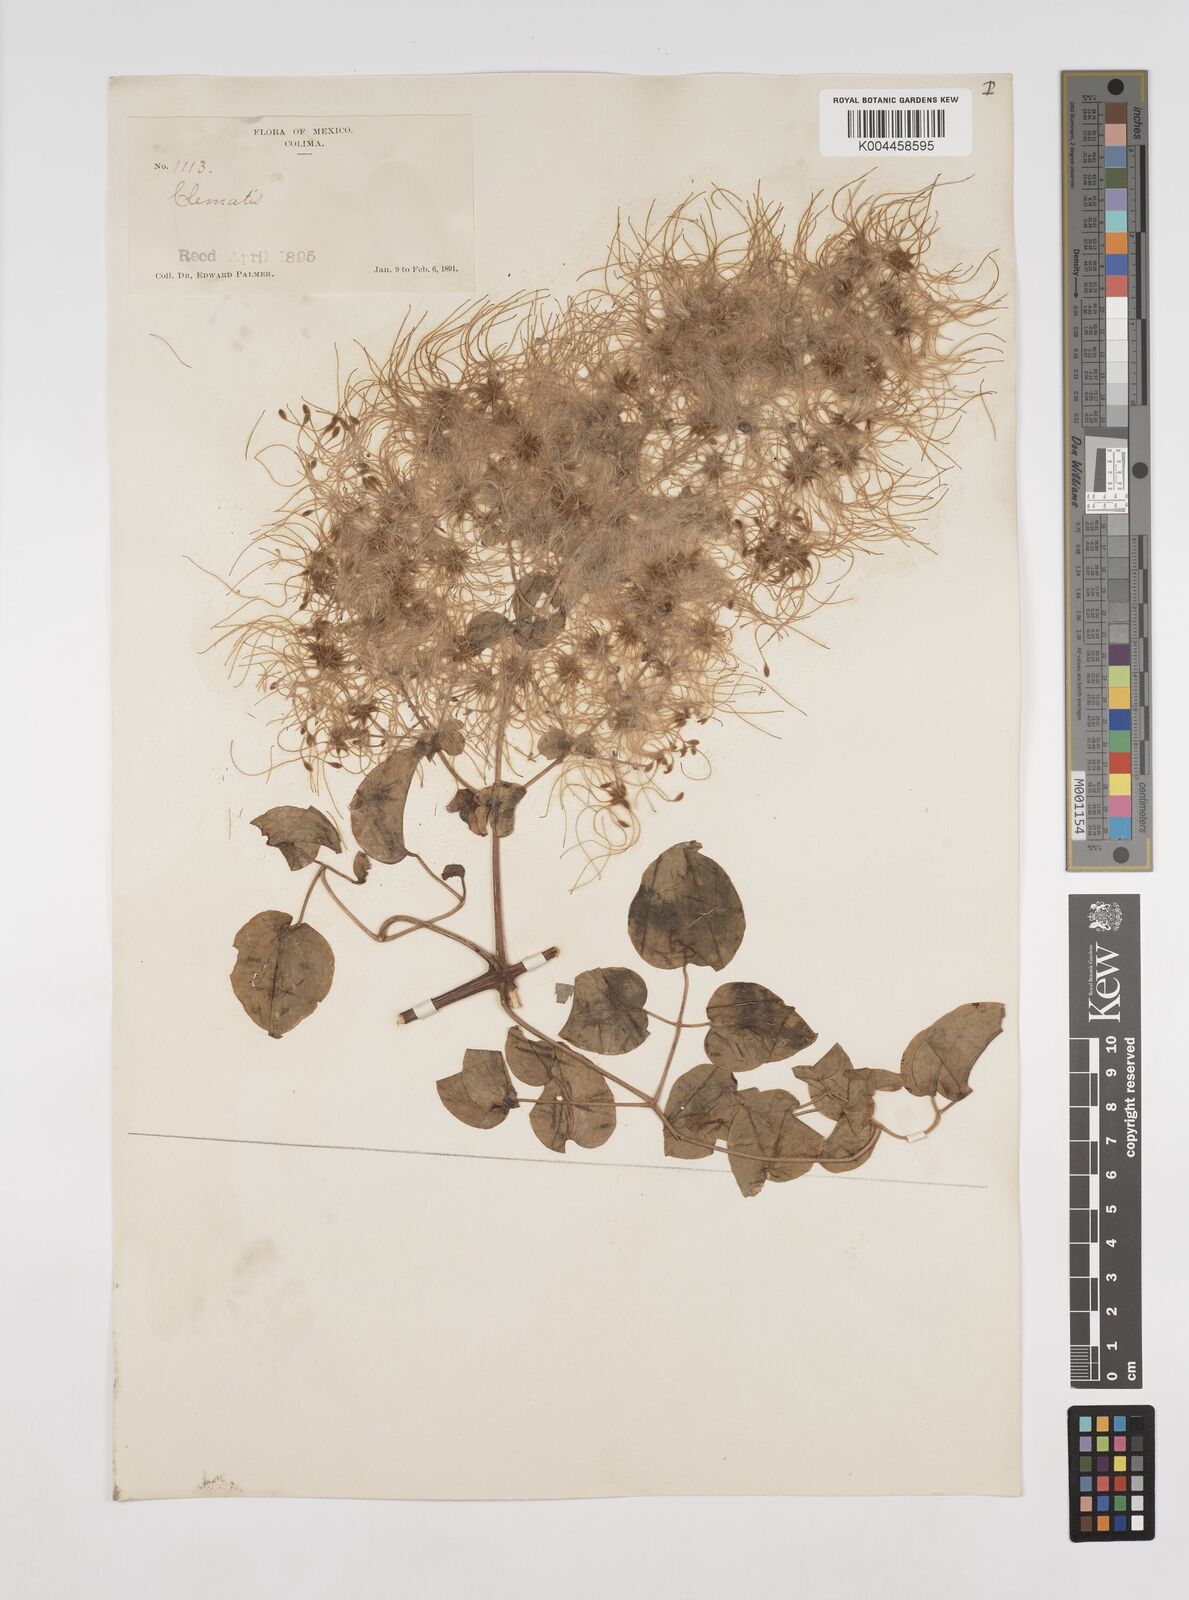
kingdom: Plantae
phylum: Tracheophyta
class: Magnoliopsida
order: Ranunculales
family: Ranunculaceae
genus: Clematis
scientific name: Clematis acapulcensis
